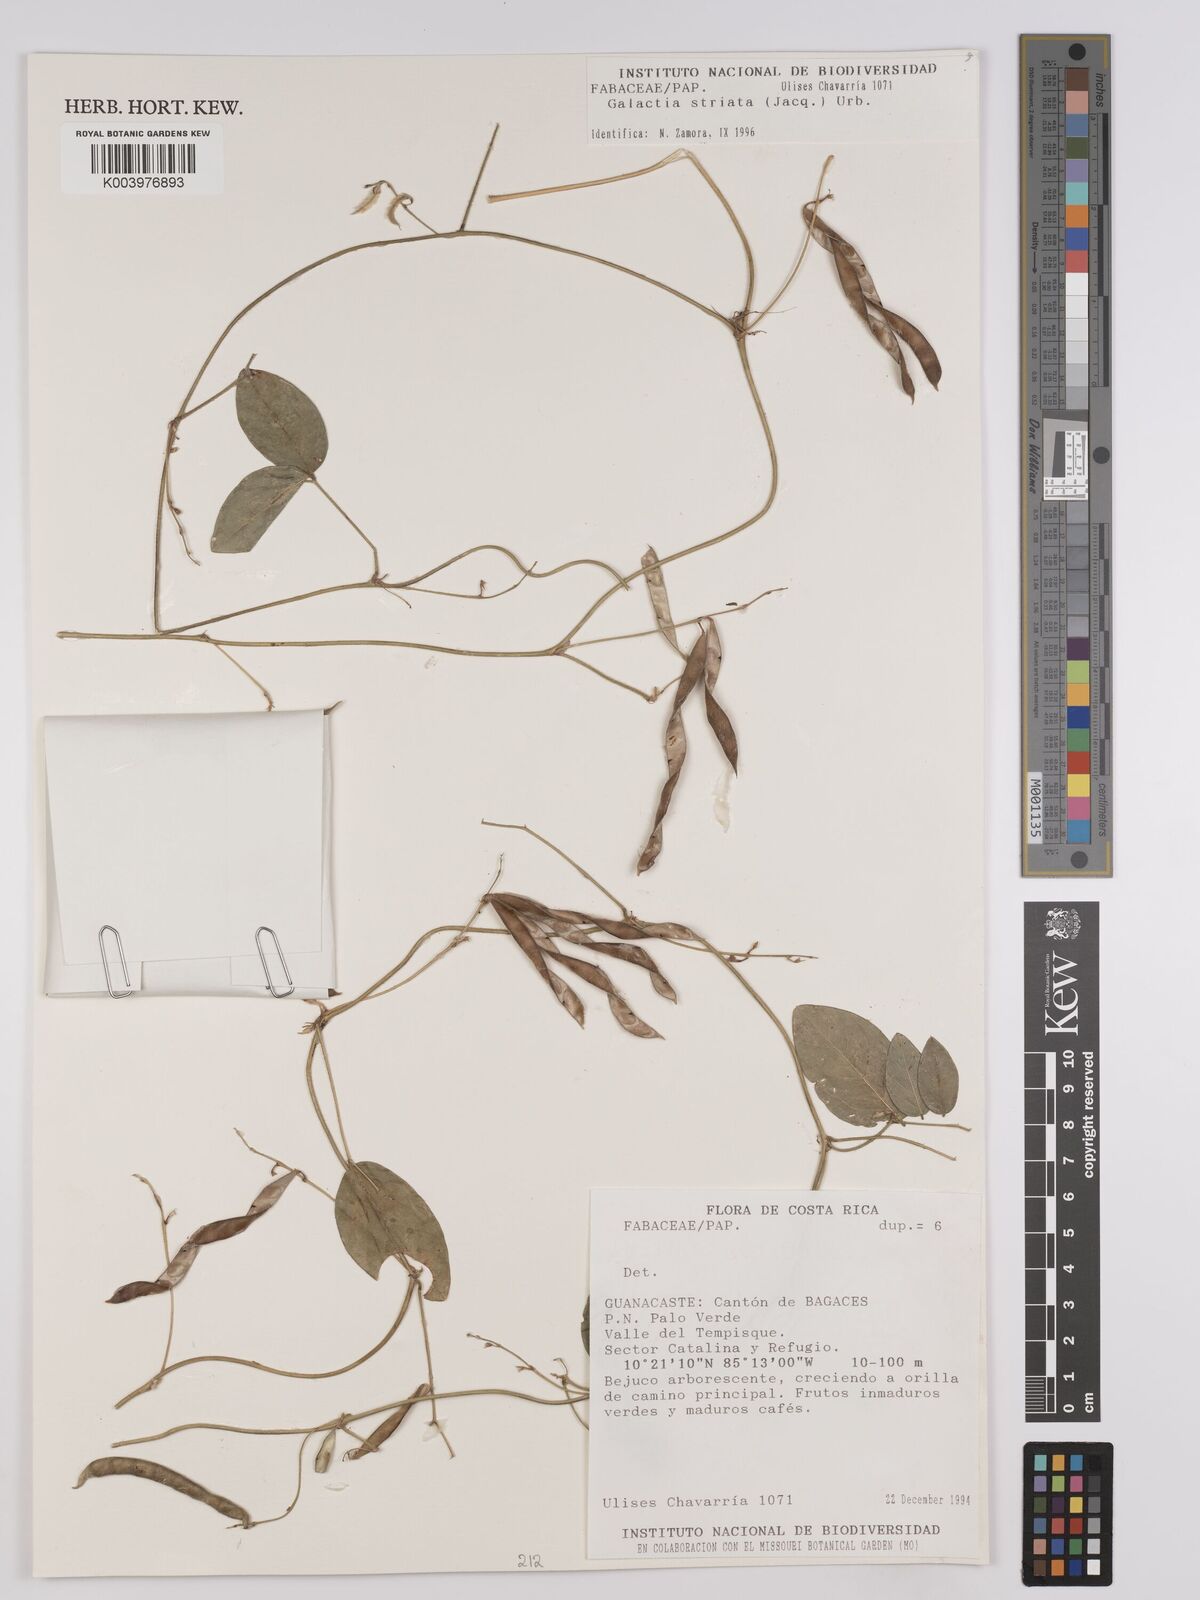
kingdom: Plantae
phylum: Tracheophyta
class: Magnoliopsida
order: Fabales
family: Fabaceae
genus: Galactia
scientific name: Galactia striata
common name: Florida hammock milkpea
